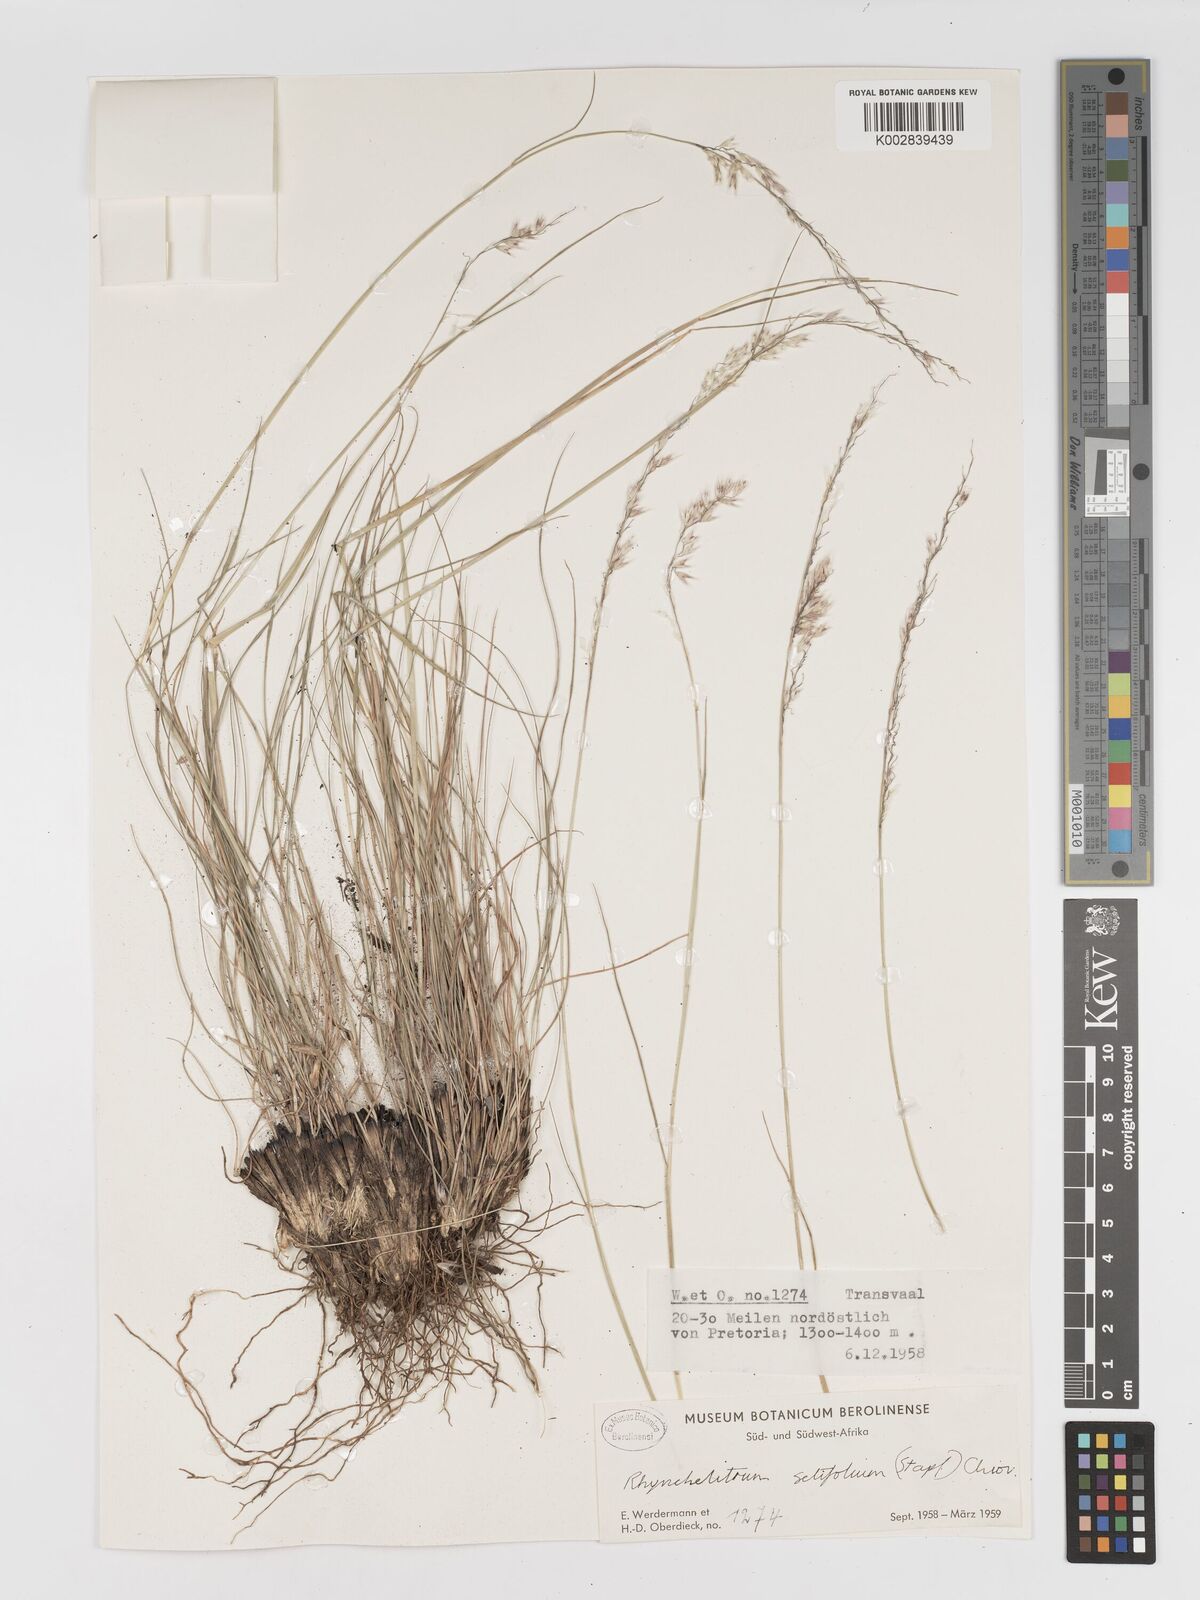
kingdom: Plantae
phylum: Tracheophyta
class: Liliopsida
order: Poales
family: Poaceae
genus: Melinis
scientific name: Melinis nerviglumis
